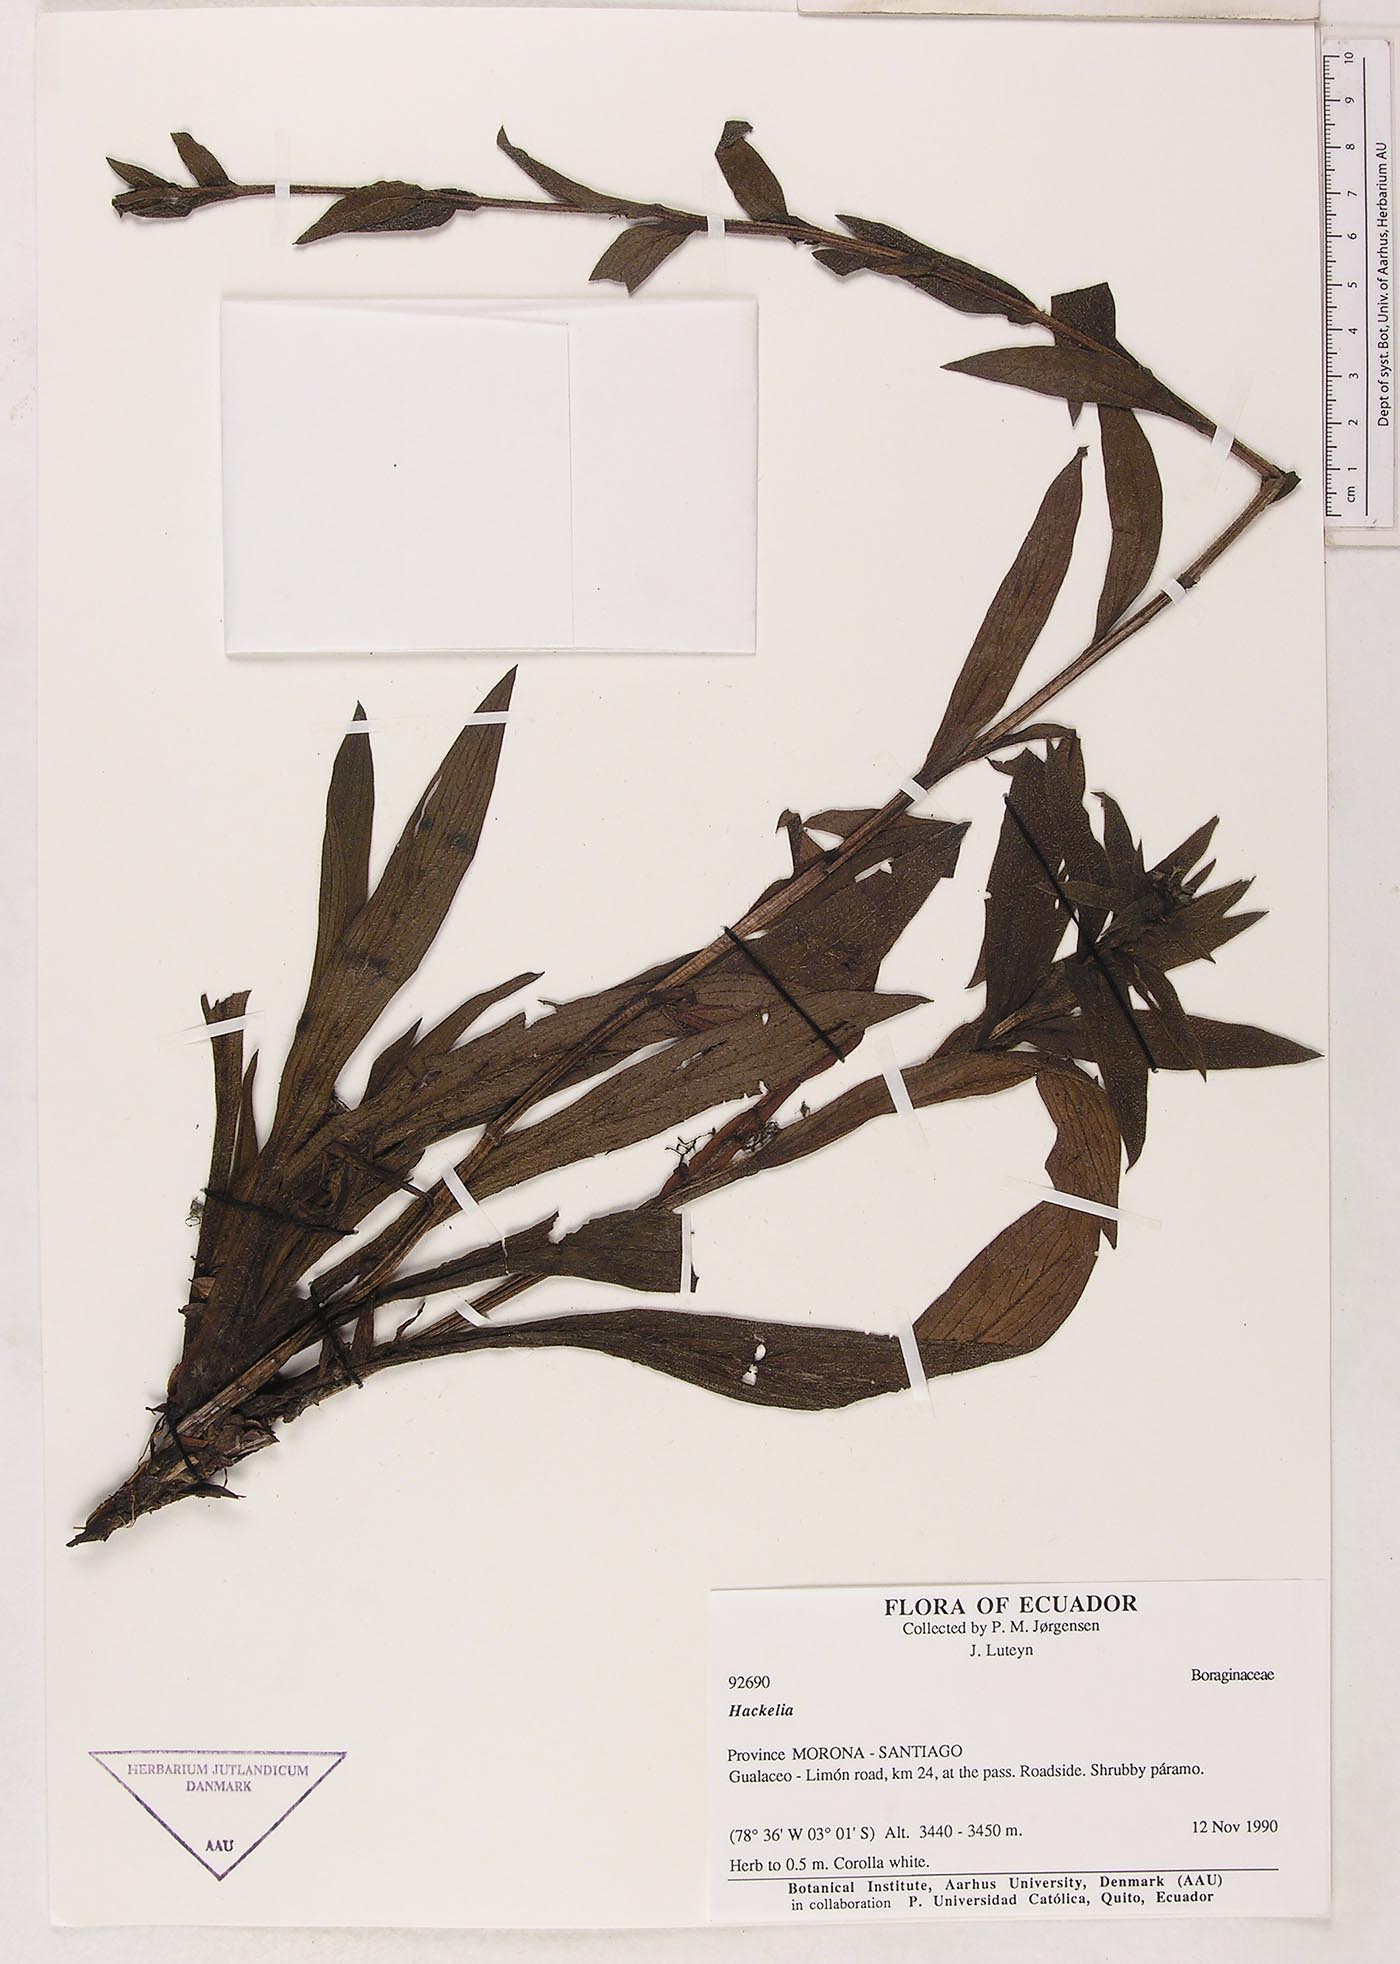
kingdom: Plantae
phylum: Tracheophyta
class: Magnoliopsida
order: Boraginales
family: Boraginaceae
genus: Moritzia
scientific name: Moritzia lindenii
